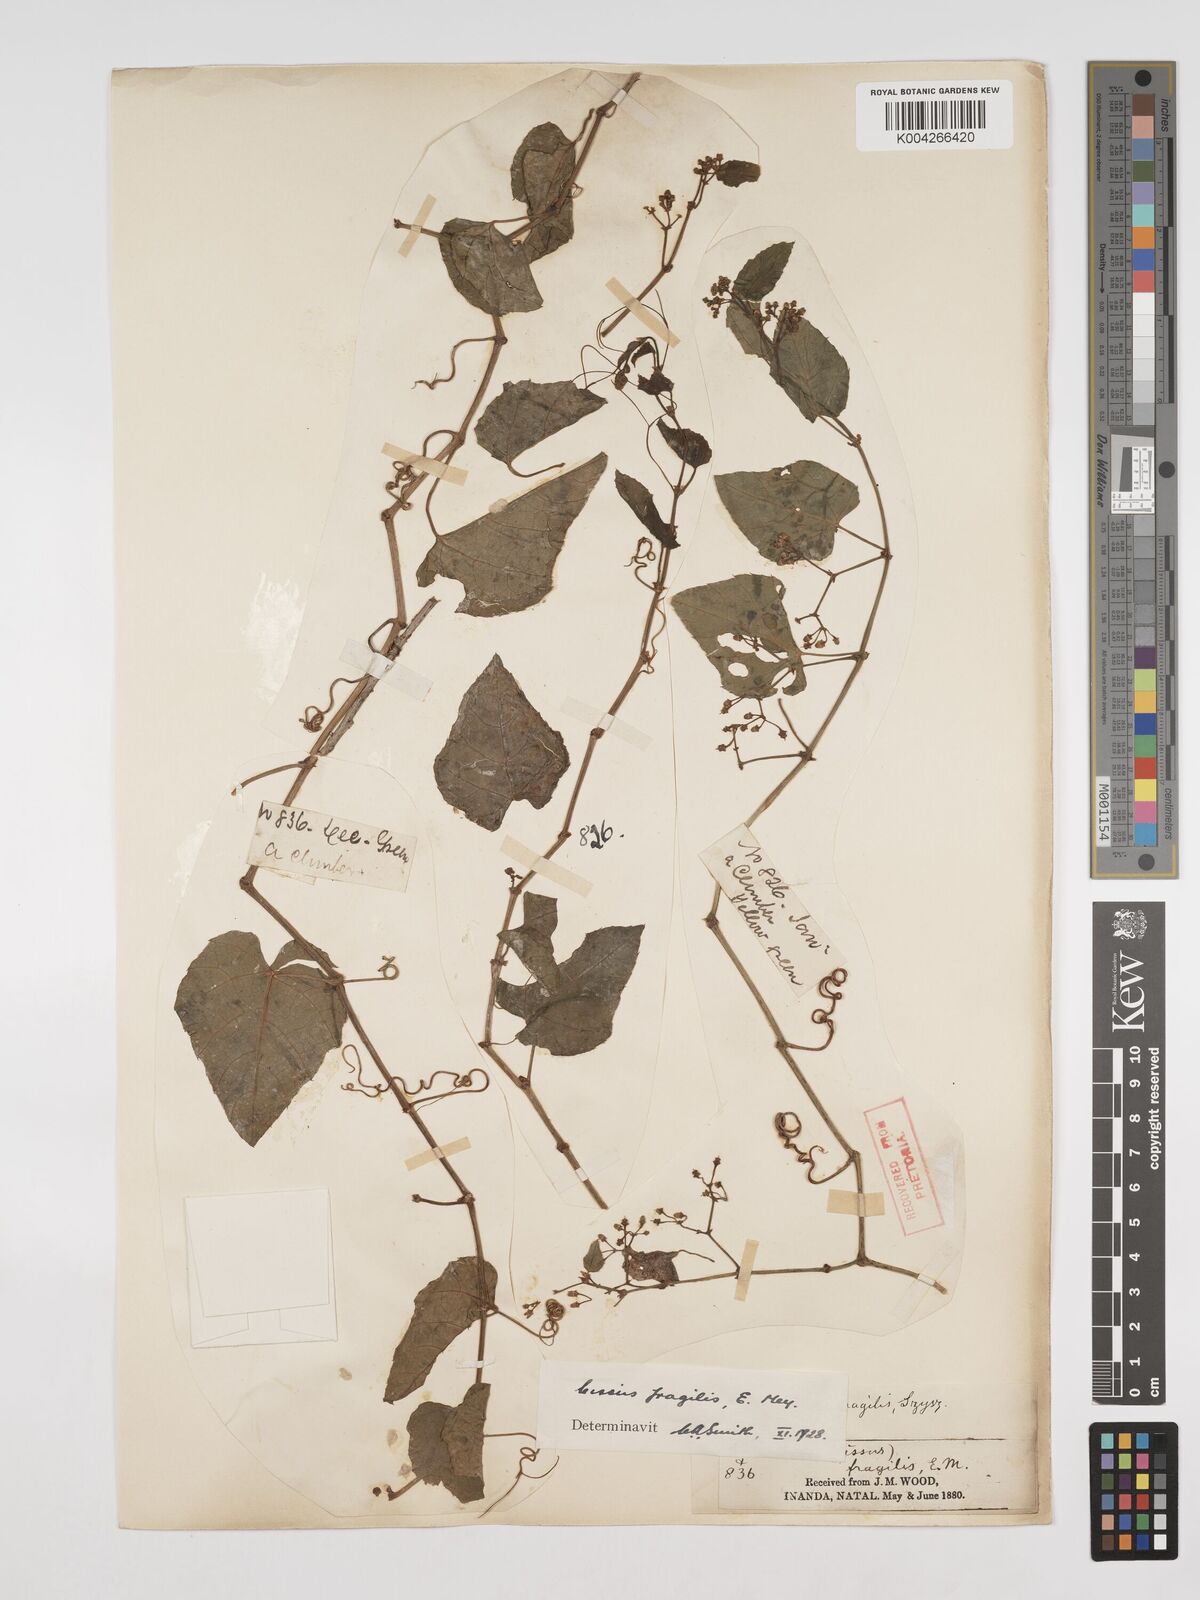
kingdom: Plantae
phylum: Tracheophyta
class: Magnoliopsida
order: Vitales
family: Vitaceae
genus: Cissus
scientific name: Cissus fragilis
